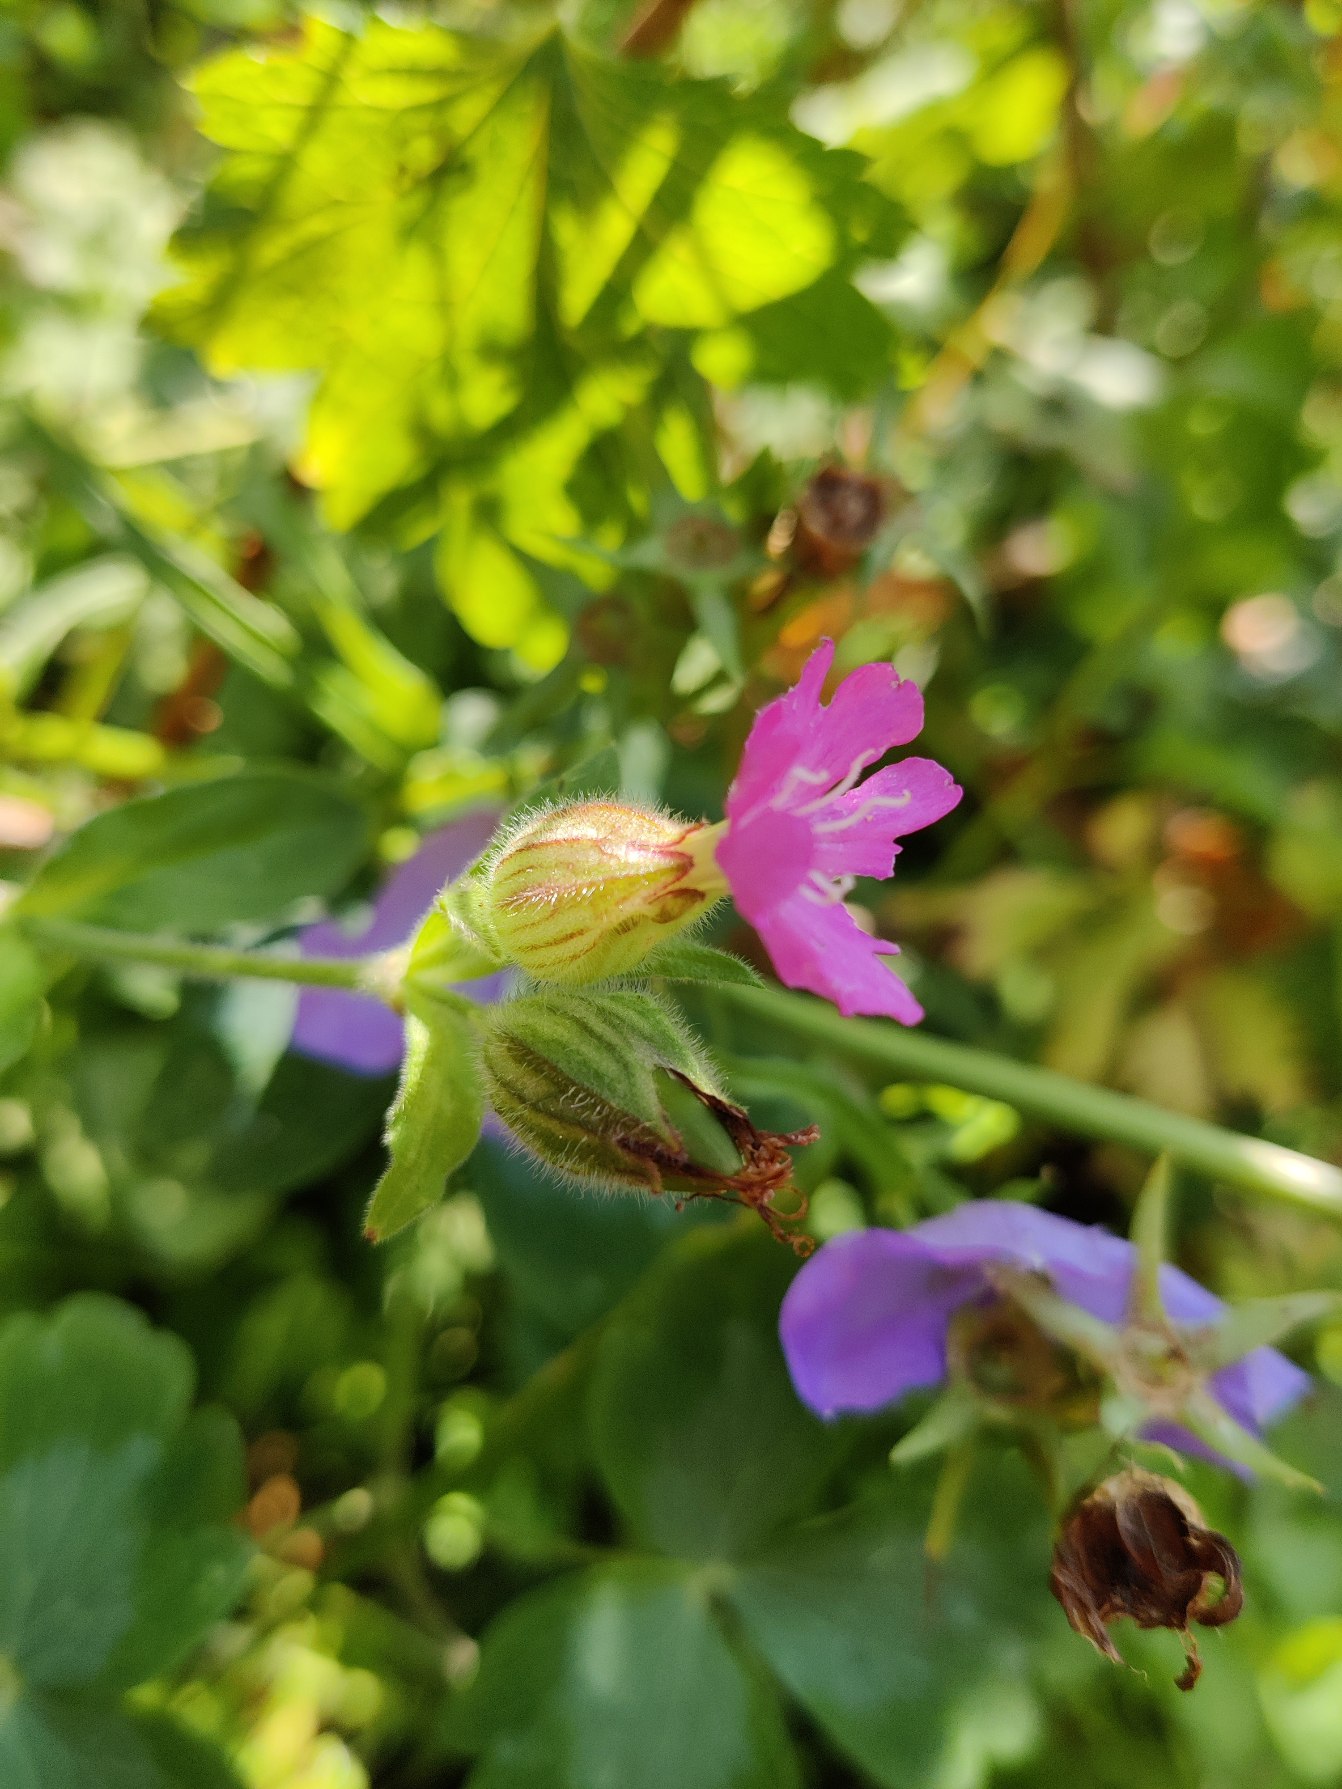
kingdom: Plantae
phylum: Tracheophyta
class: Magnoliopsida
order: Caryophyllales
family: Caryophyllaceae
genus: Silene
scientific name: Silene dioica
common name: Dagpragtstjerne
